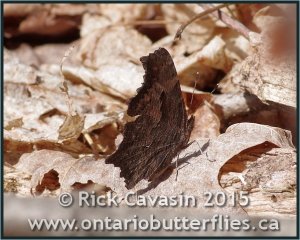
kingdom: Animalia
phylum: Arthropoda
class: Insecta
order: Lepidoptera
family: Nymphalidae
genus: Polygonia
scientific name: Polygonia progne
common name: Gray Comma
